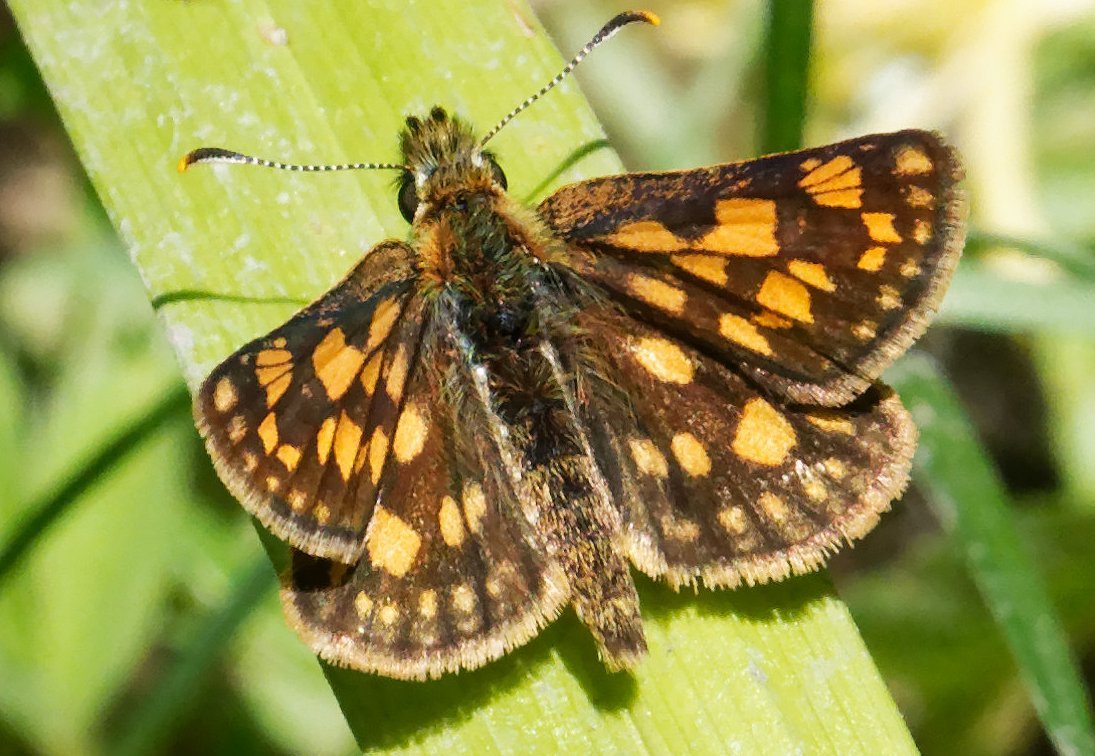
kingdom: Animalia
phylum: Arthropoda
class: Insecta
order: Lepidoptera
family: Hesperiidae
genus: Carterocephalus
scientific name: Carterocephalus palaemon
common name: Chequered Skipper
